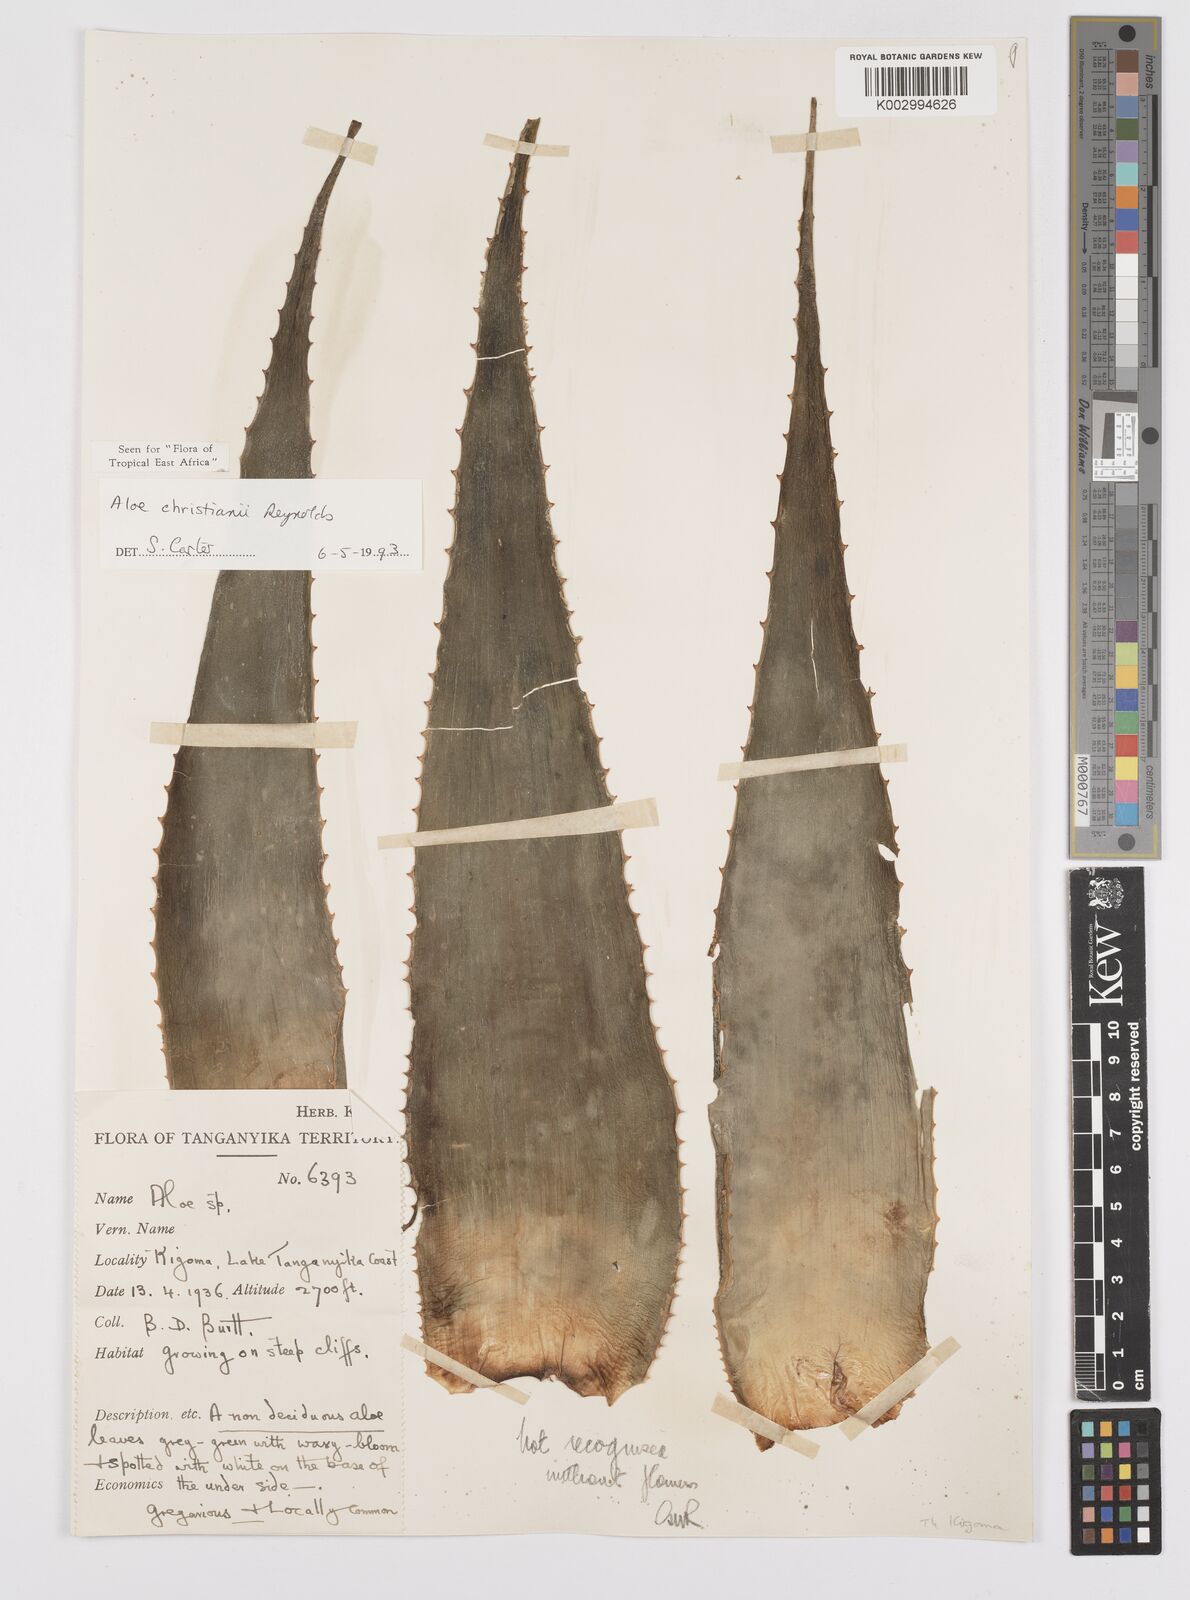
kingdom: Plantae
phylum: Tracheophyta
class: Liliopsida
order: Asparagales
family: Asphodelaceae
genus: Aloe
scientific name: Aloe christianii
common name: Basil christian's aloe
